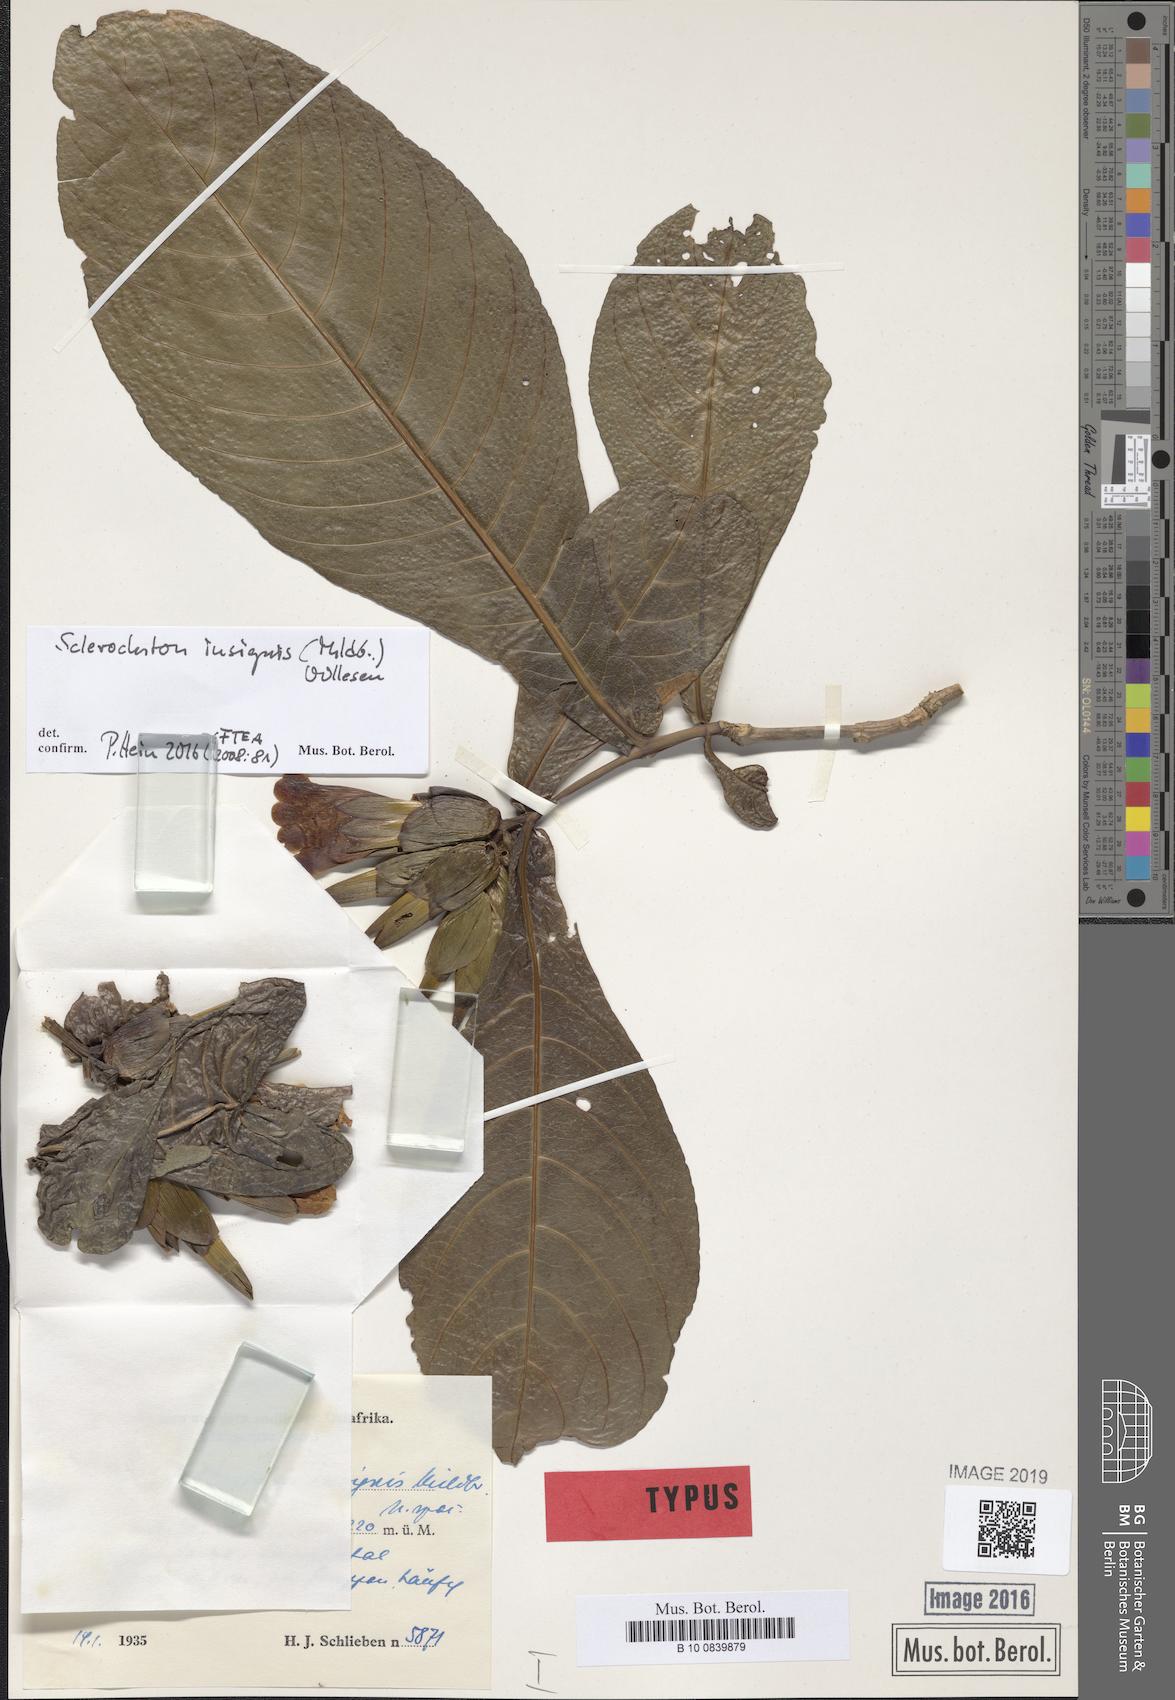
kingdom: Plantae
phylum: Tracheophyta
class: Magnoliopsida
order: Lamiales
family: Acanthaceae
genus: Sclerochiton
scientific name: Sclerochiton insignis
